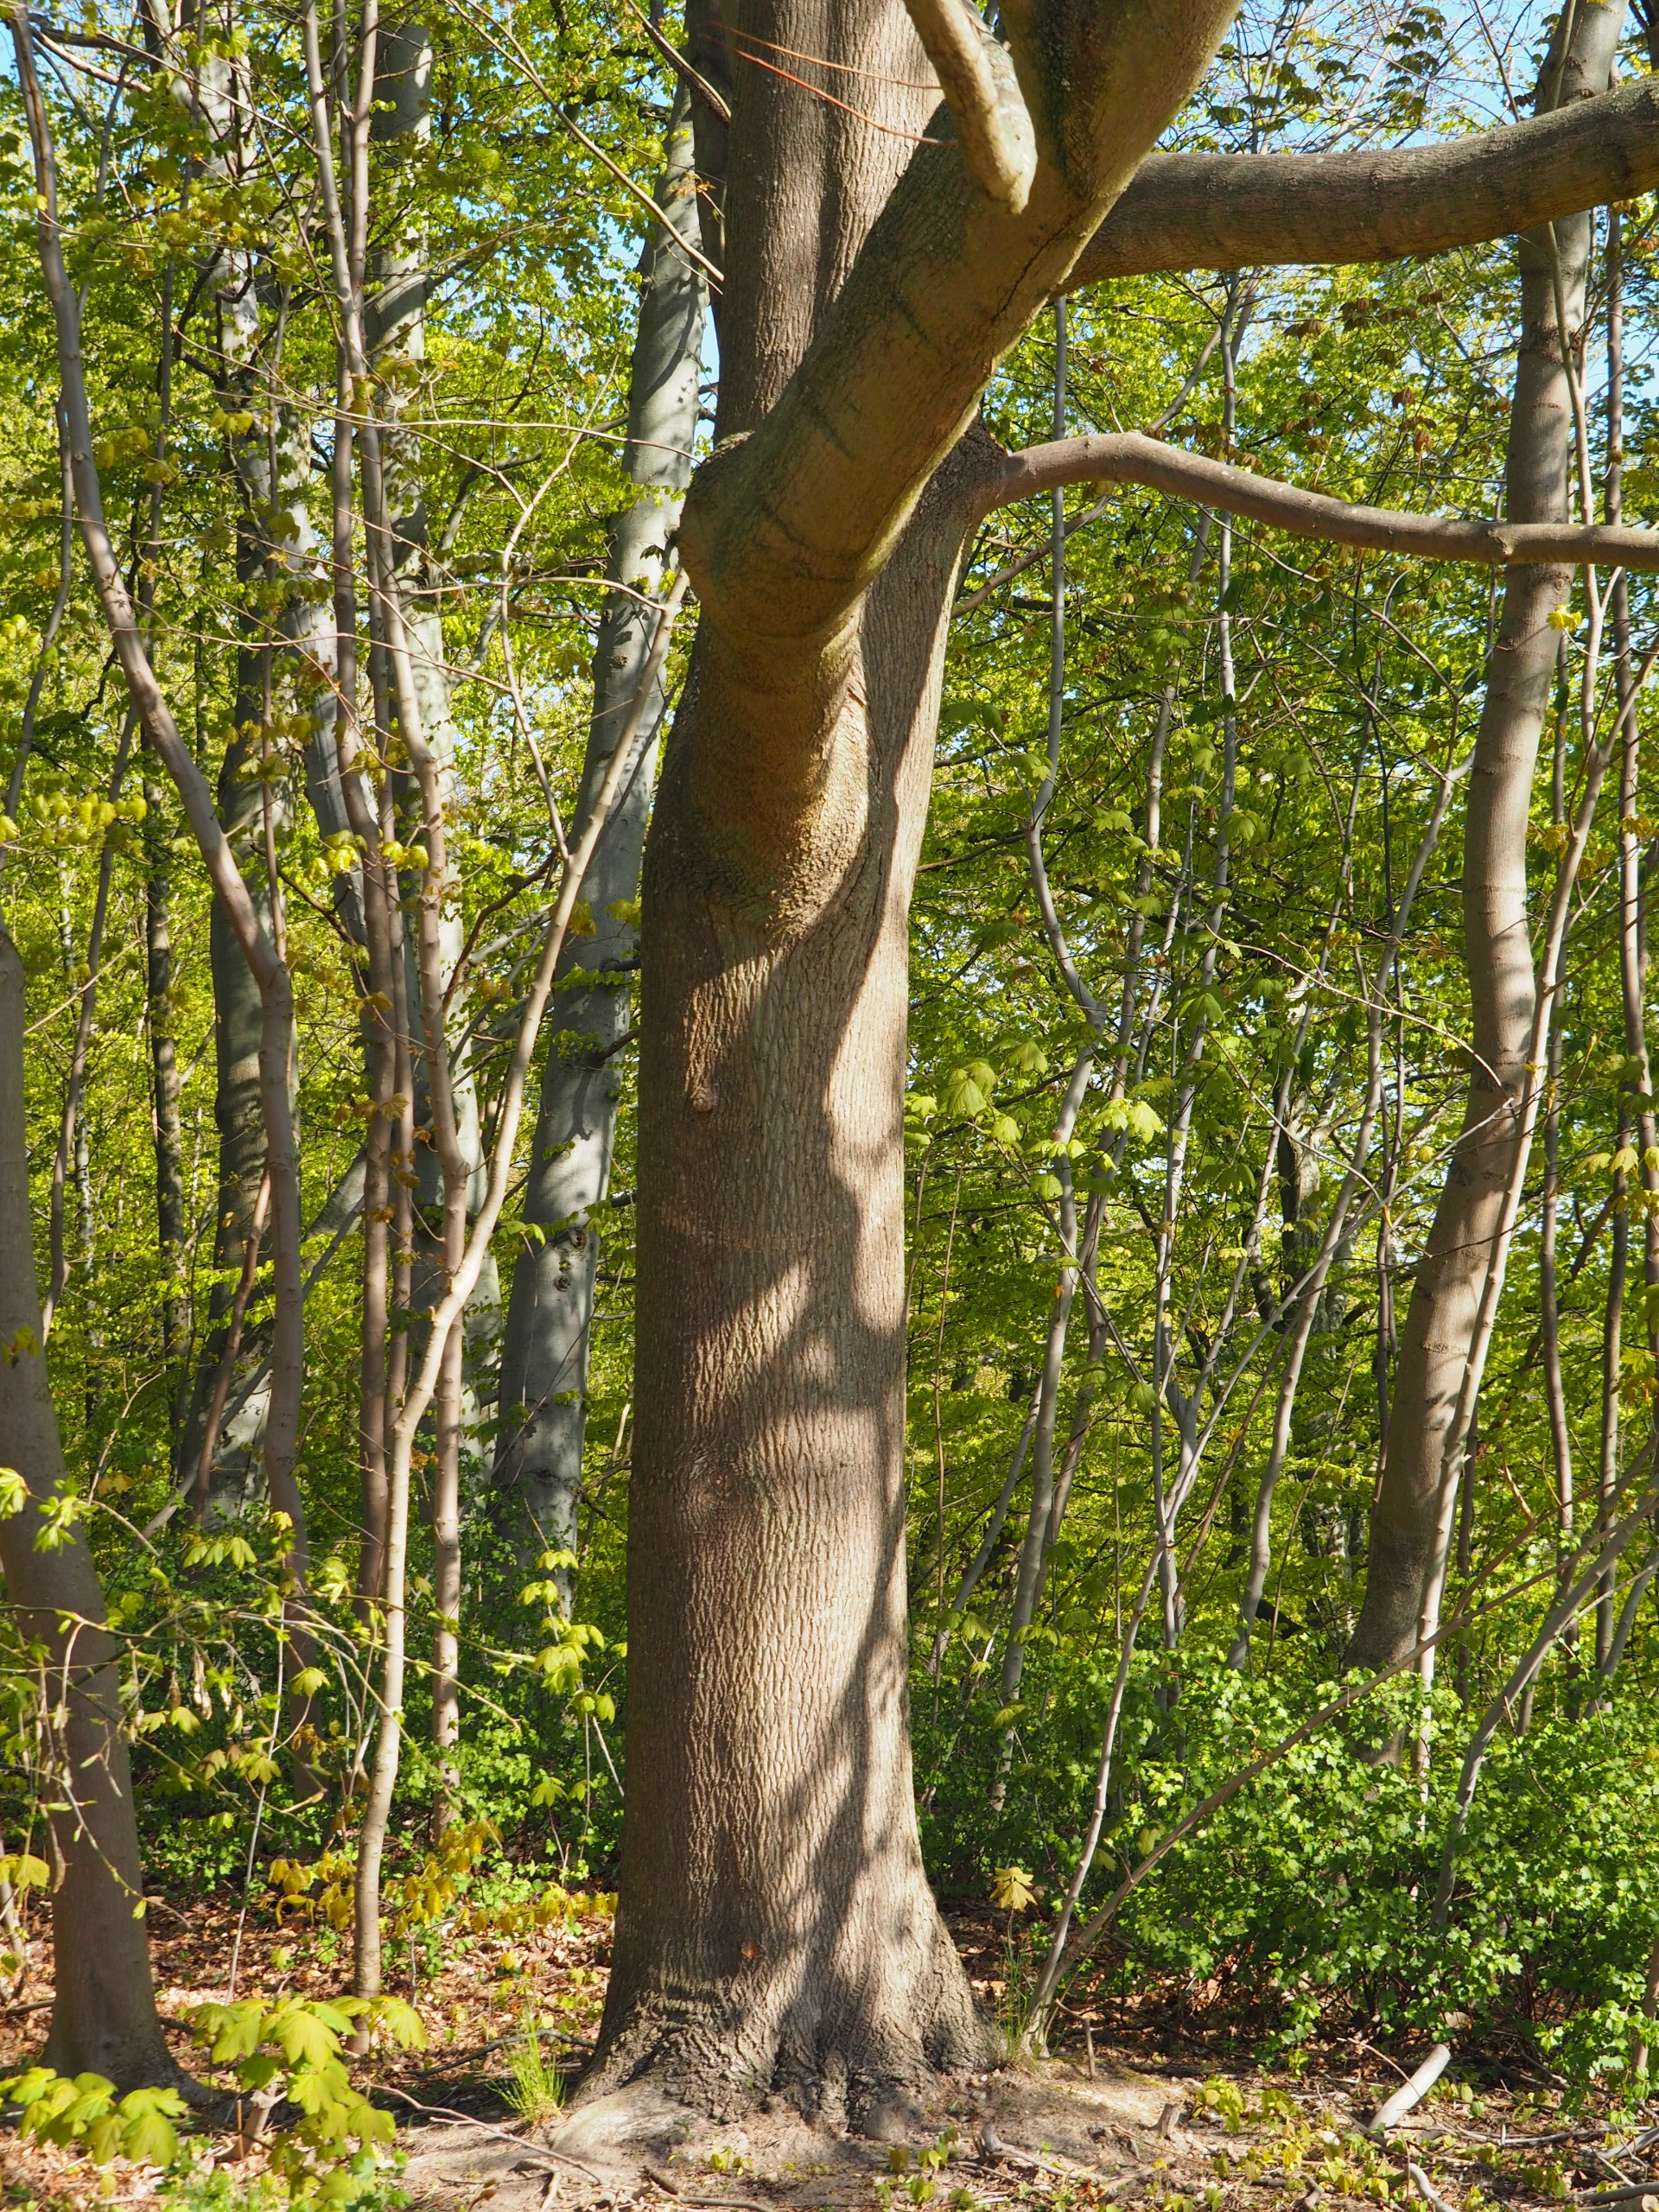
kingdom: Plantae
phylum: Tracheophyta
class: Magnoliopsida
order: Sapindales
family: Sapindaceae
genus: Acer
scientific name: Acer platanoides
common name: Spids-løn
